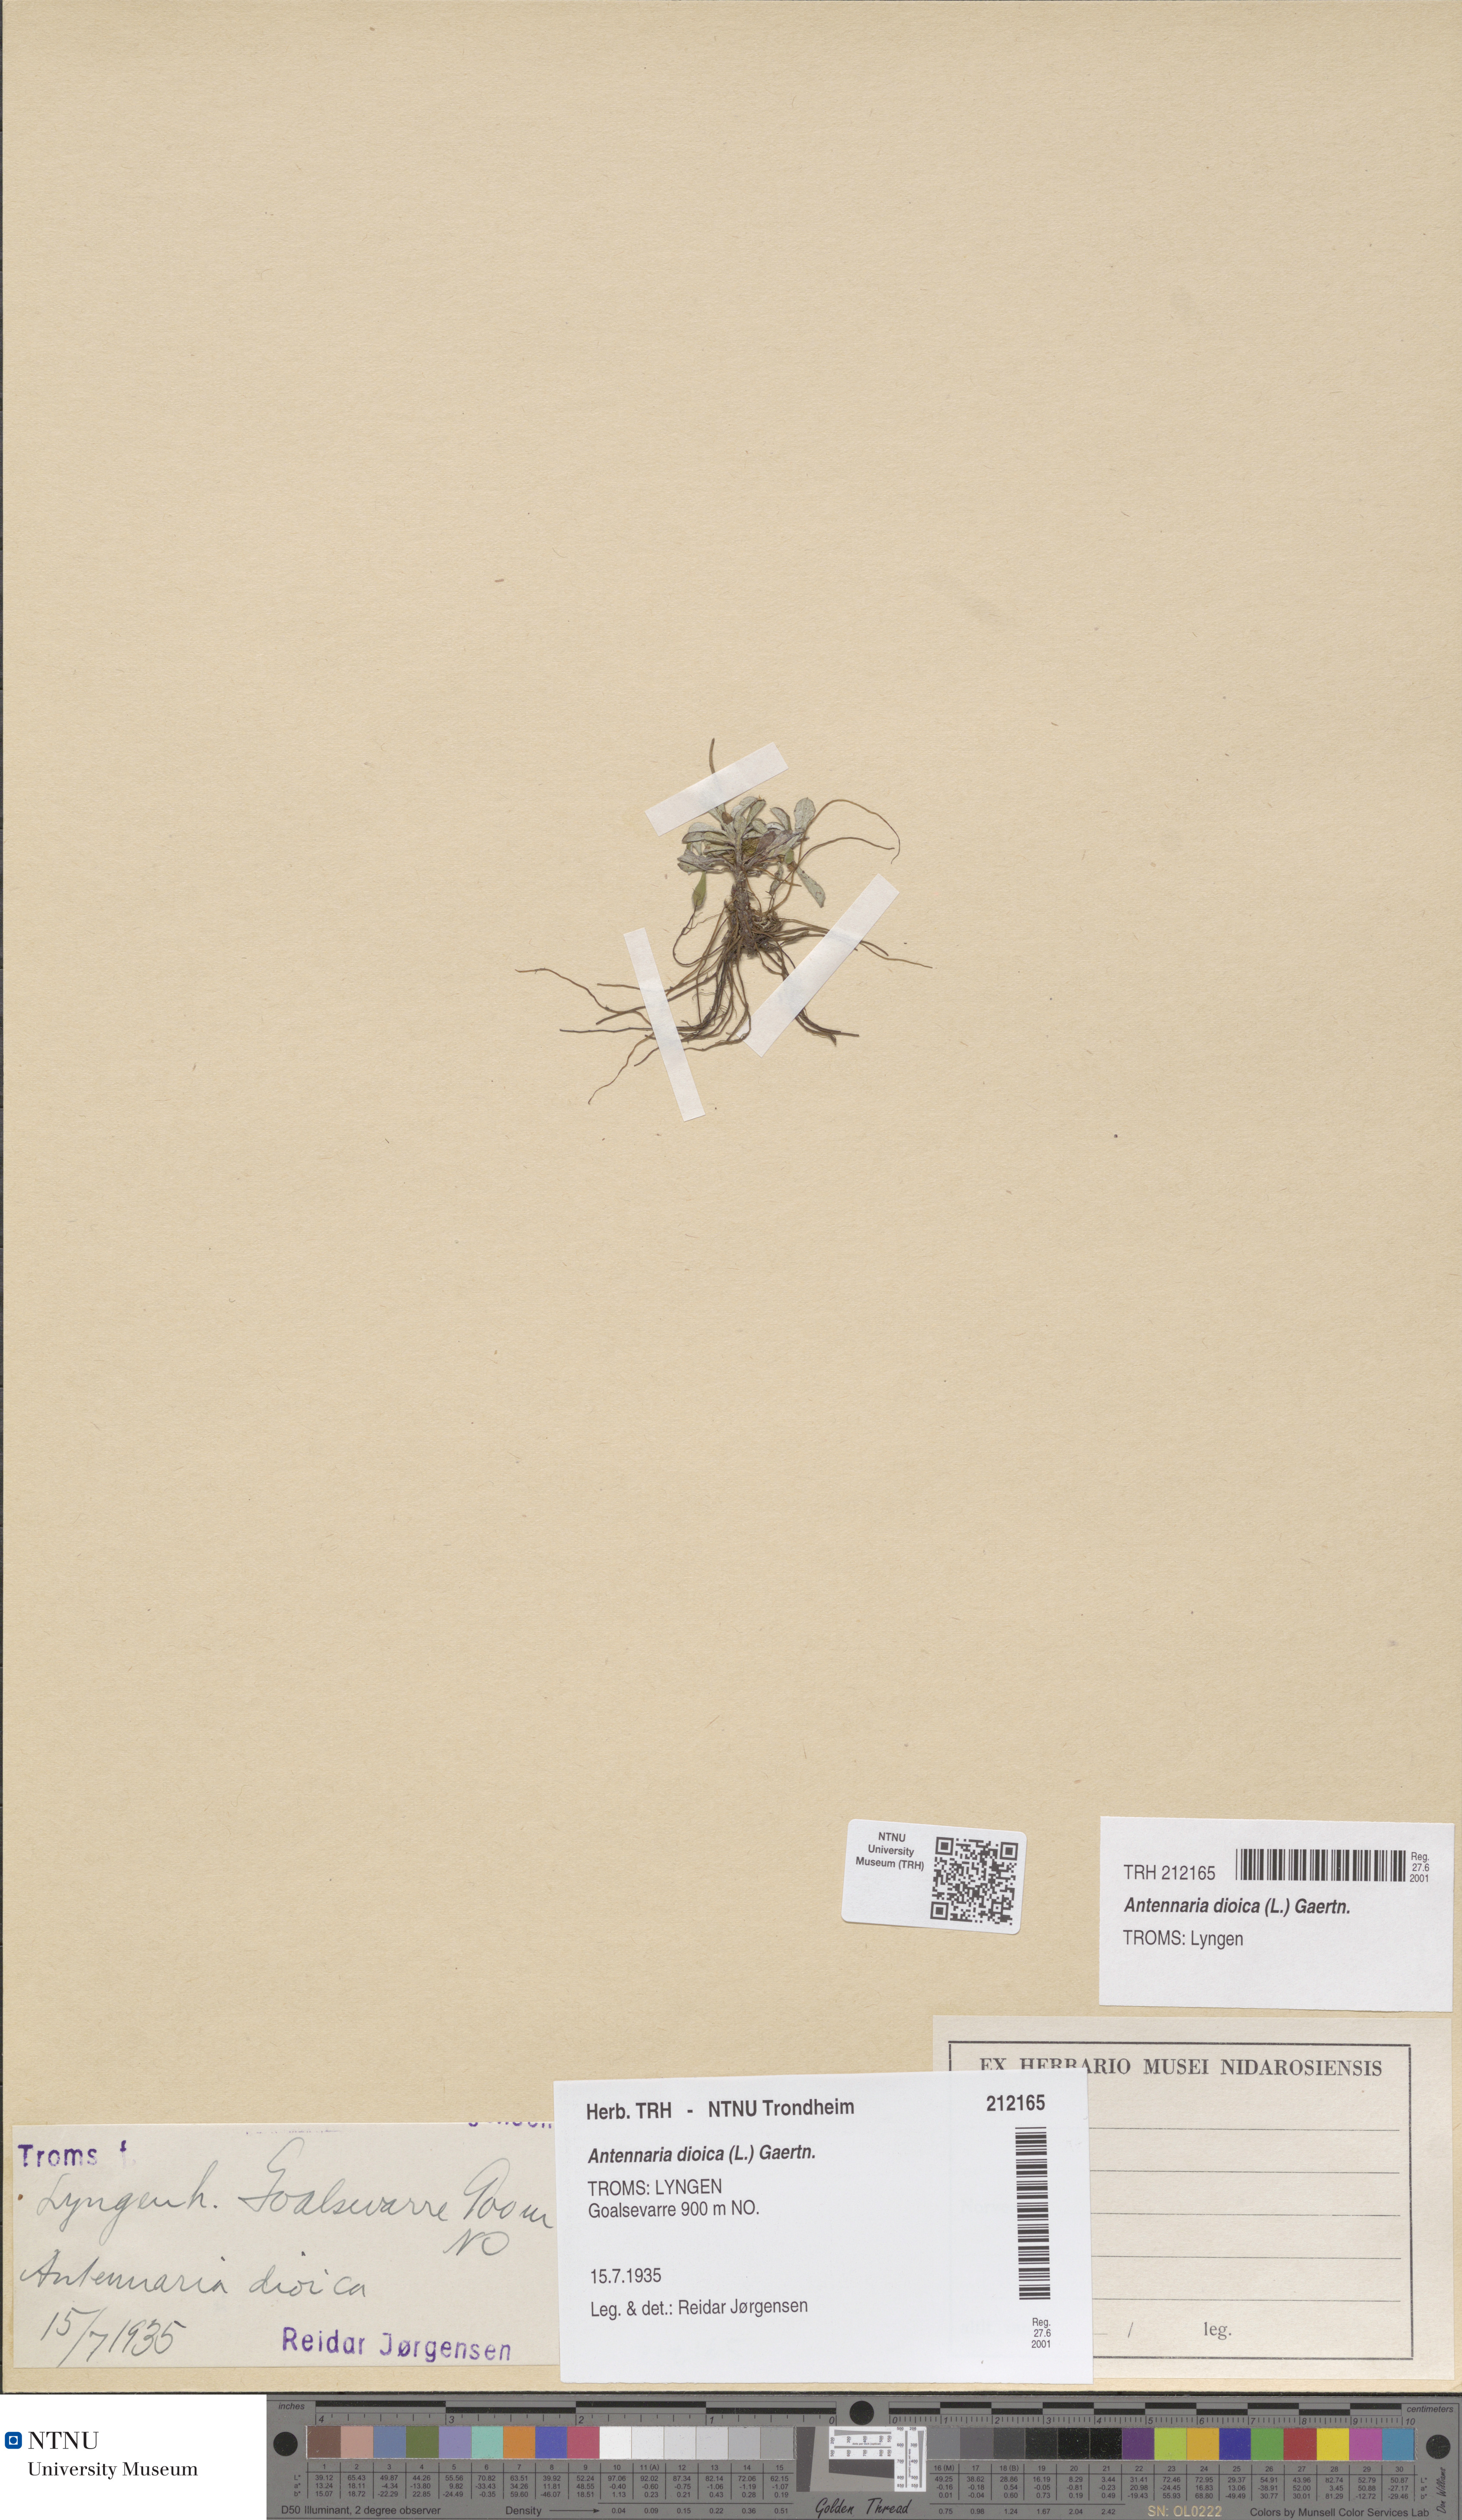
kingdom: Plantae
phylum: Tracheophyta
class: Magnoliopsida
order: Asterales
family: Asteraceae
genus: Antennaria
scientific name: Antennaria dioica
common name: Mountain everlasting
